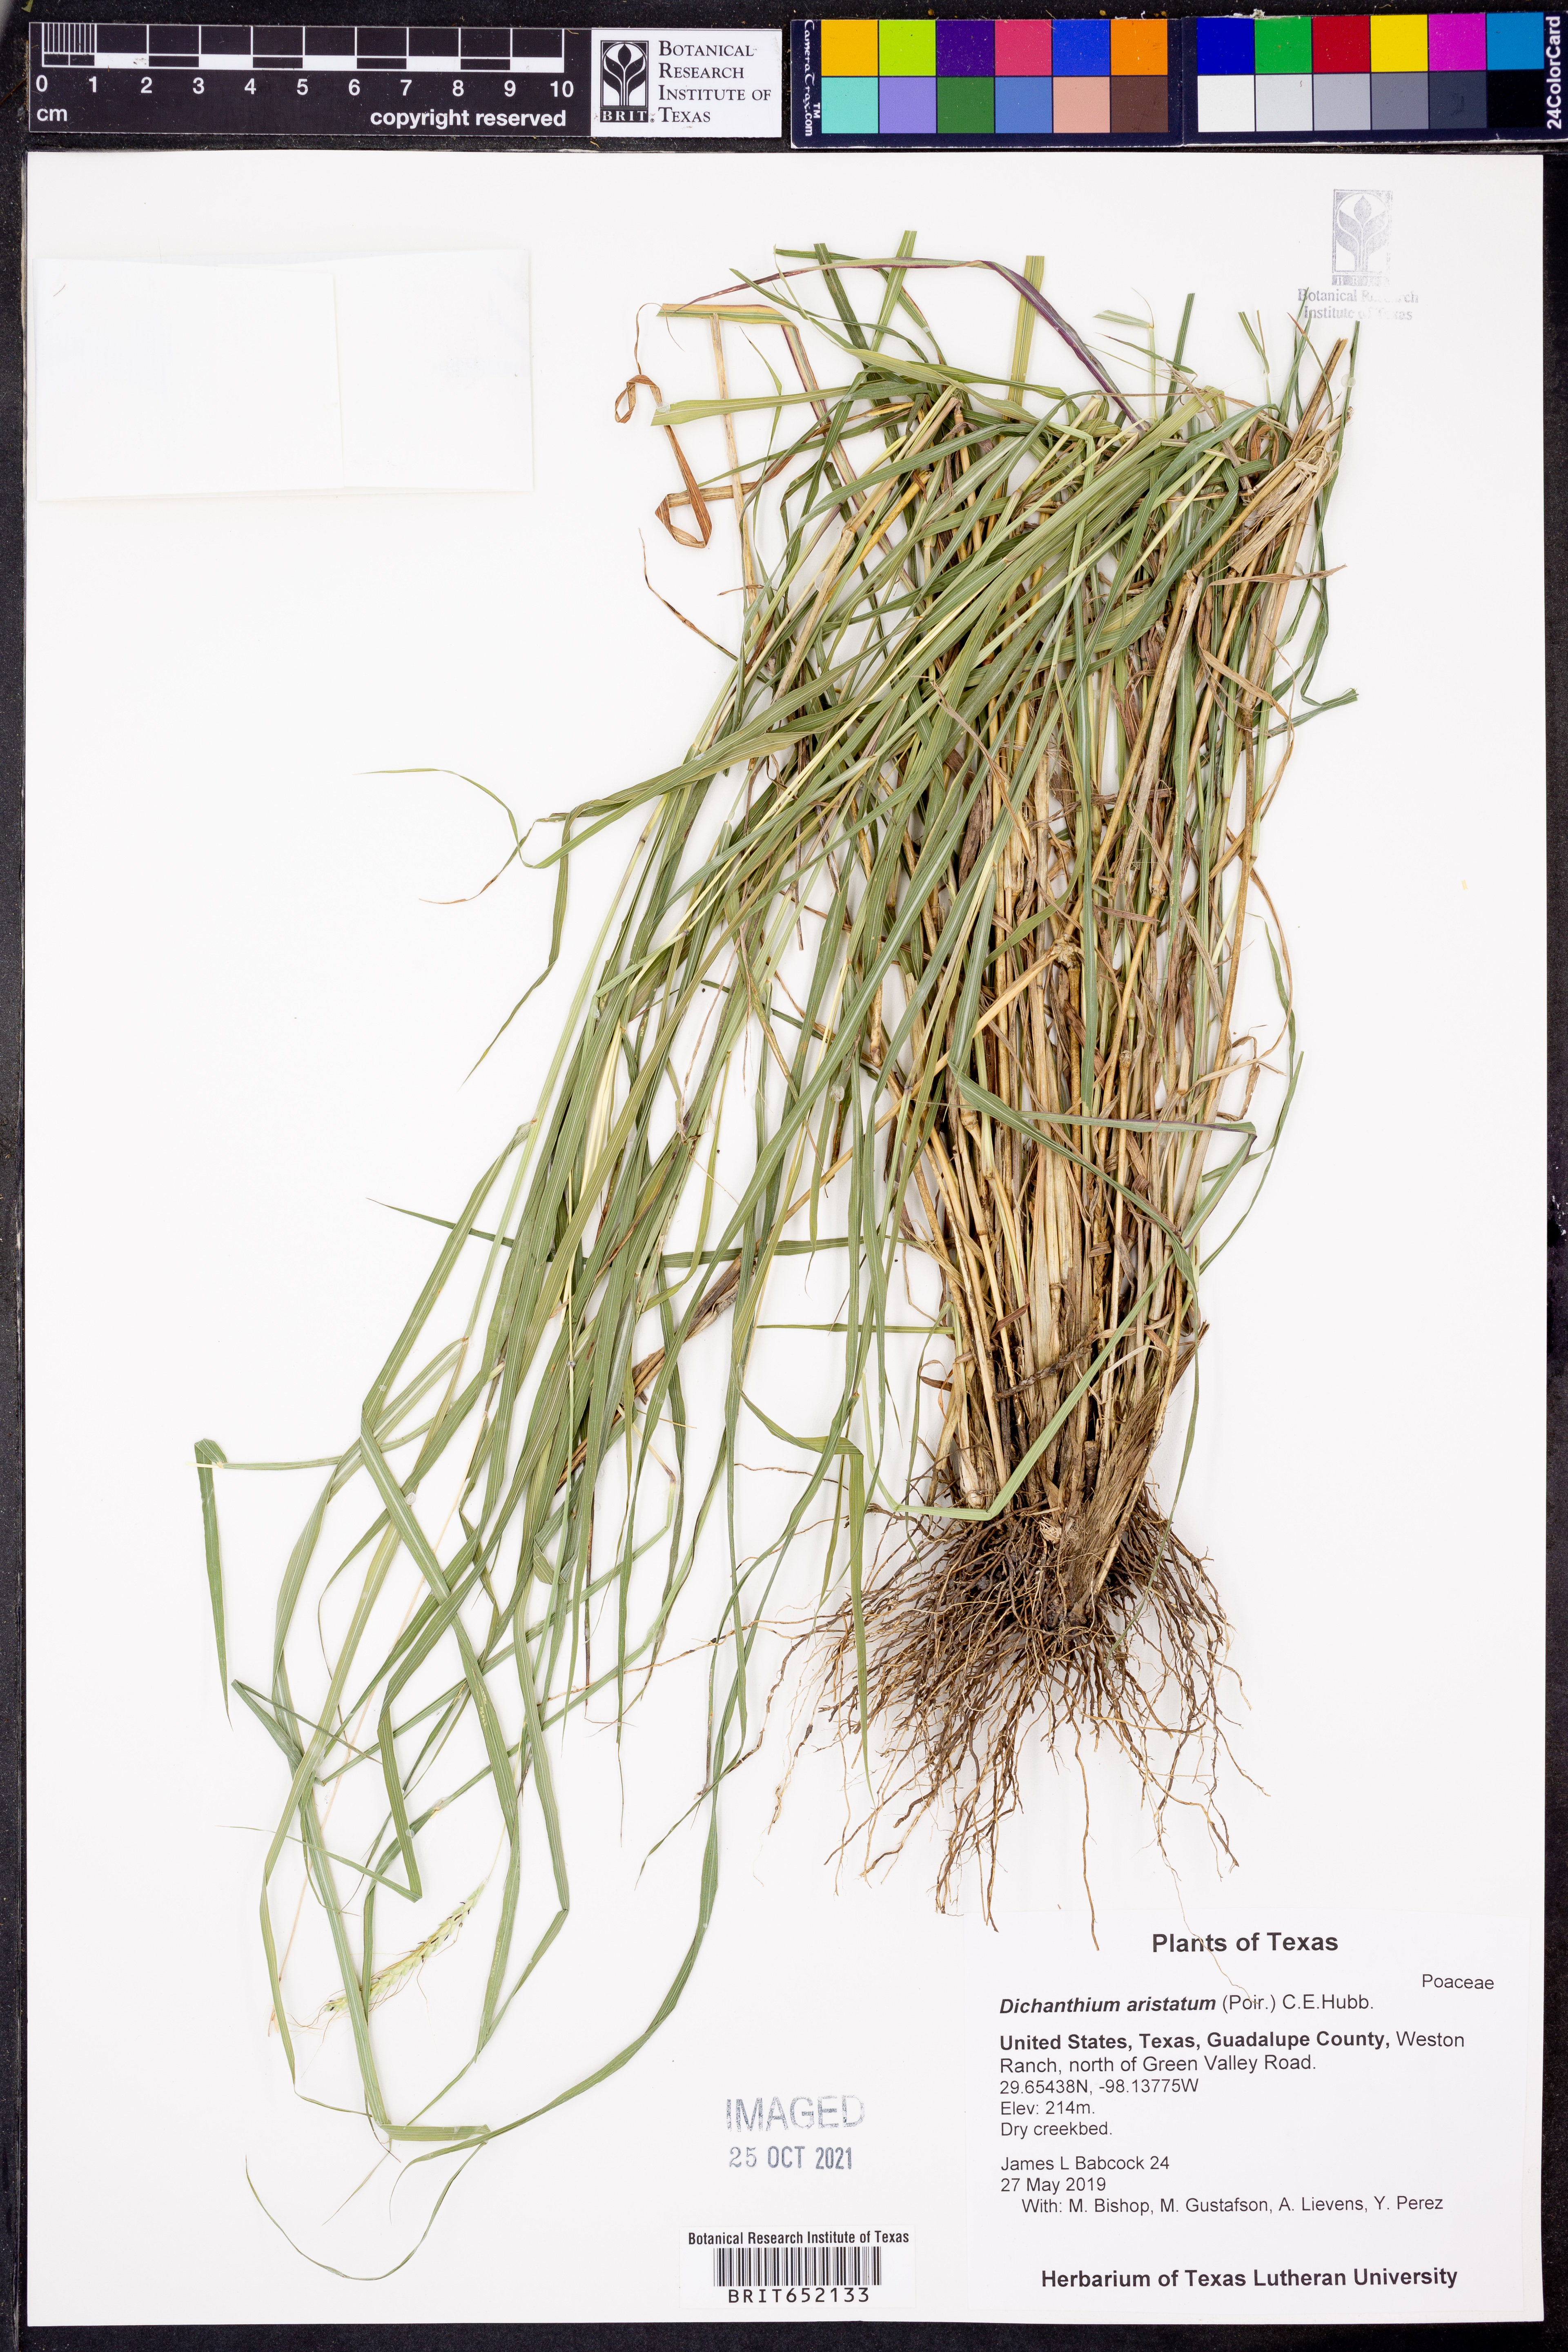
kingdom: Plantae
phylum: Tracheophyta
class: Liliopsida
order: Poales
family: Poaceae
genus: Dichanthium
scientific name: Dichanthium aristatum
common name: Angleton bluestem
